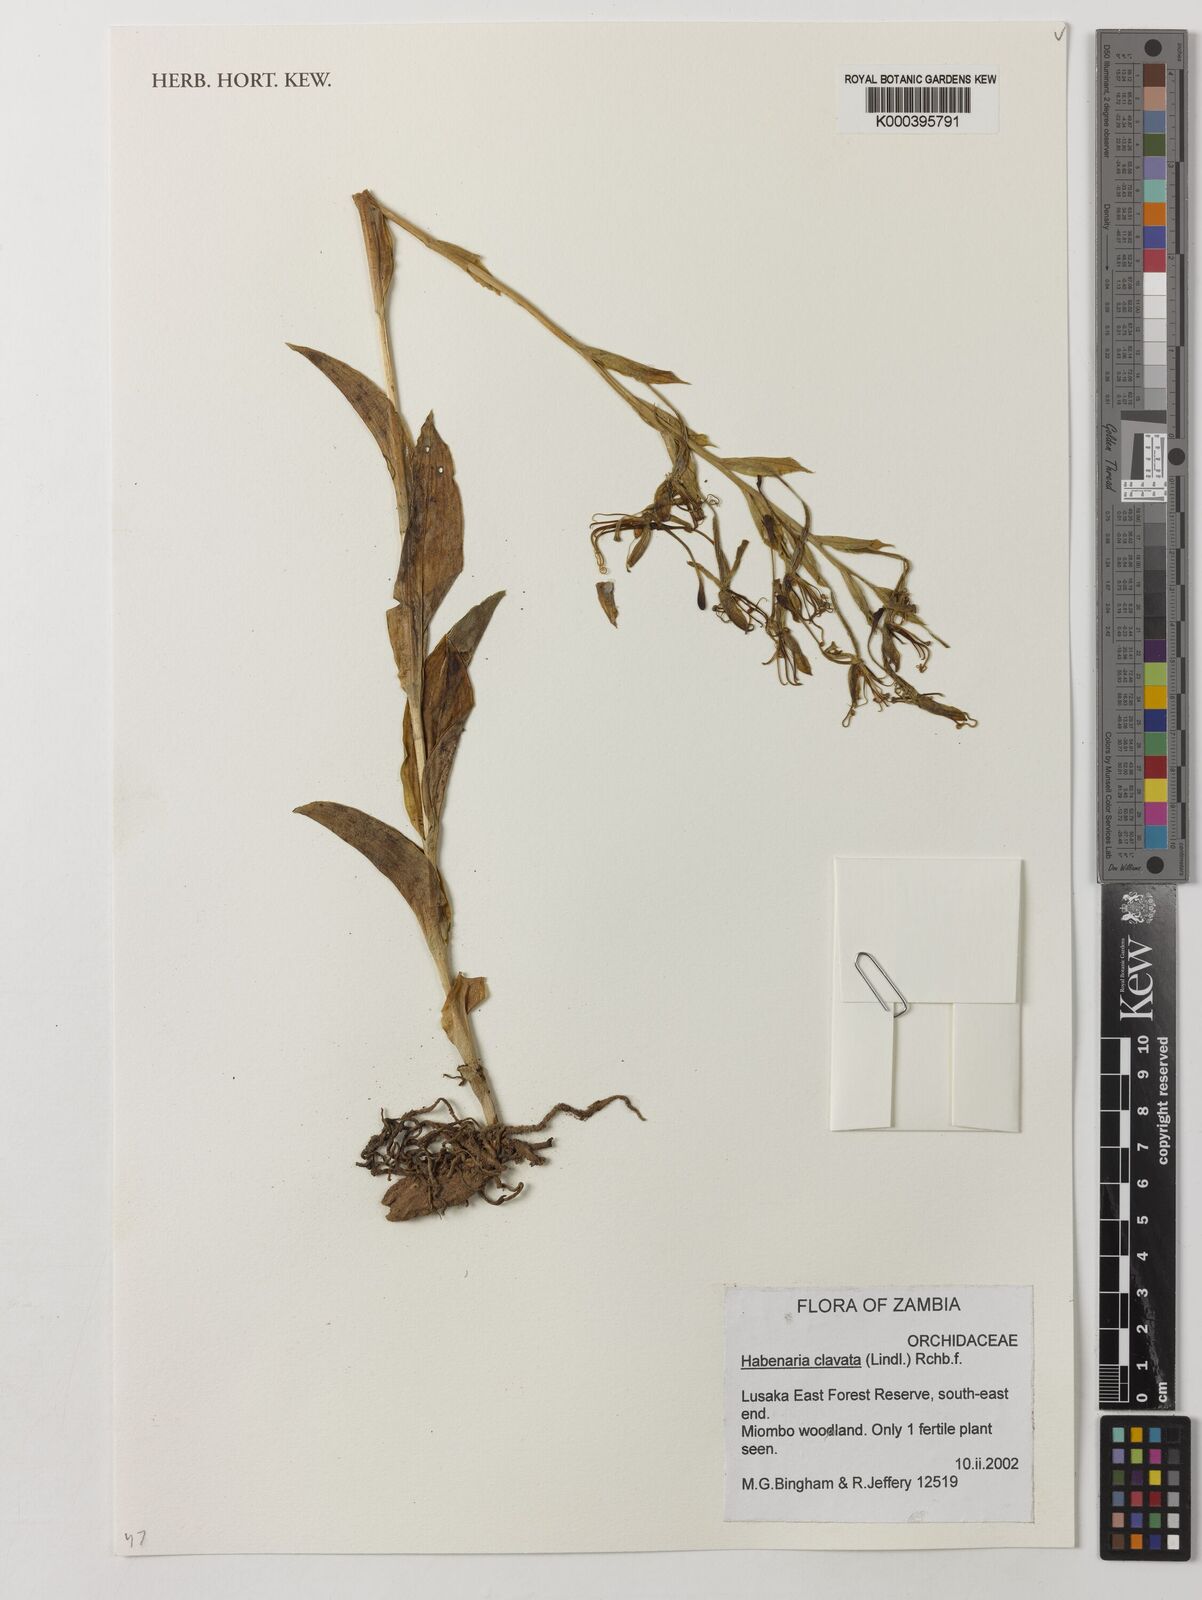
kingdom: Plantae
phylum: Tracheophyta
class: Liliopsida
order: Asparagales
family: Orchidaceae
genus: Habenaria
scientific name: Habenaria clavata
